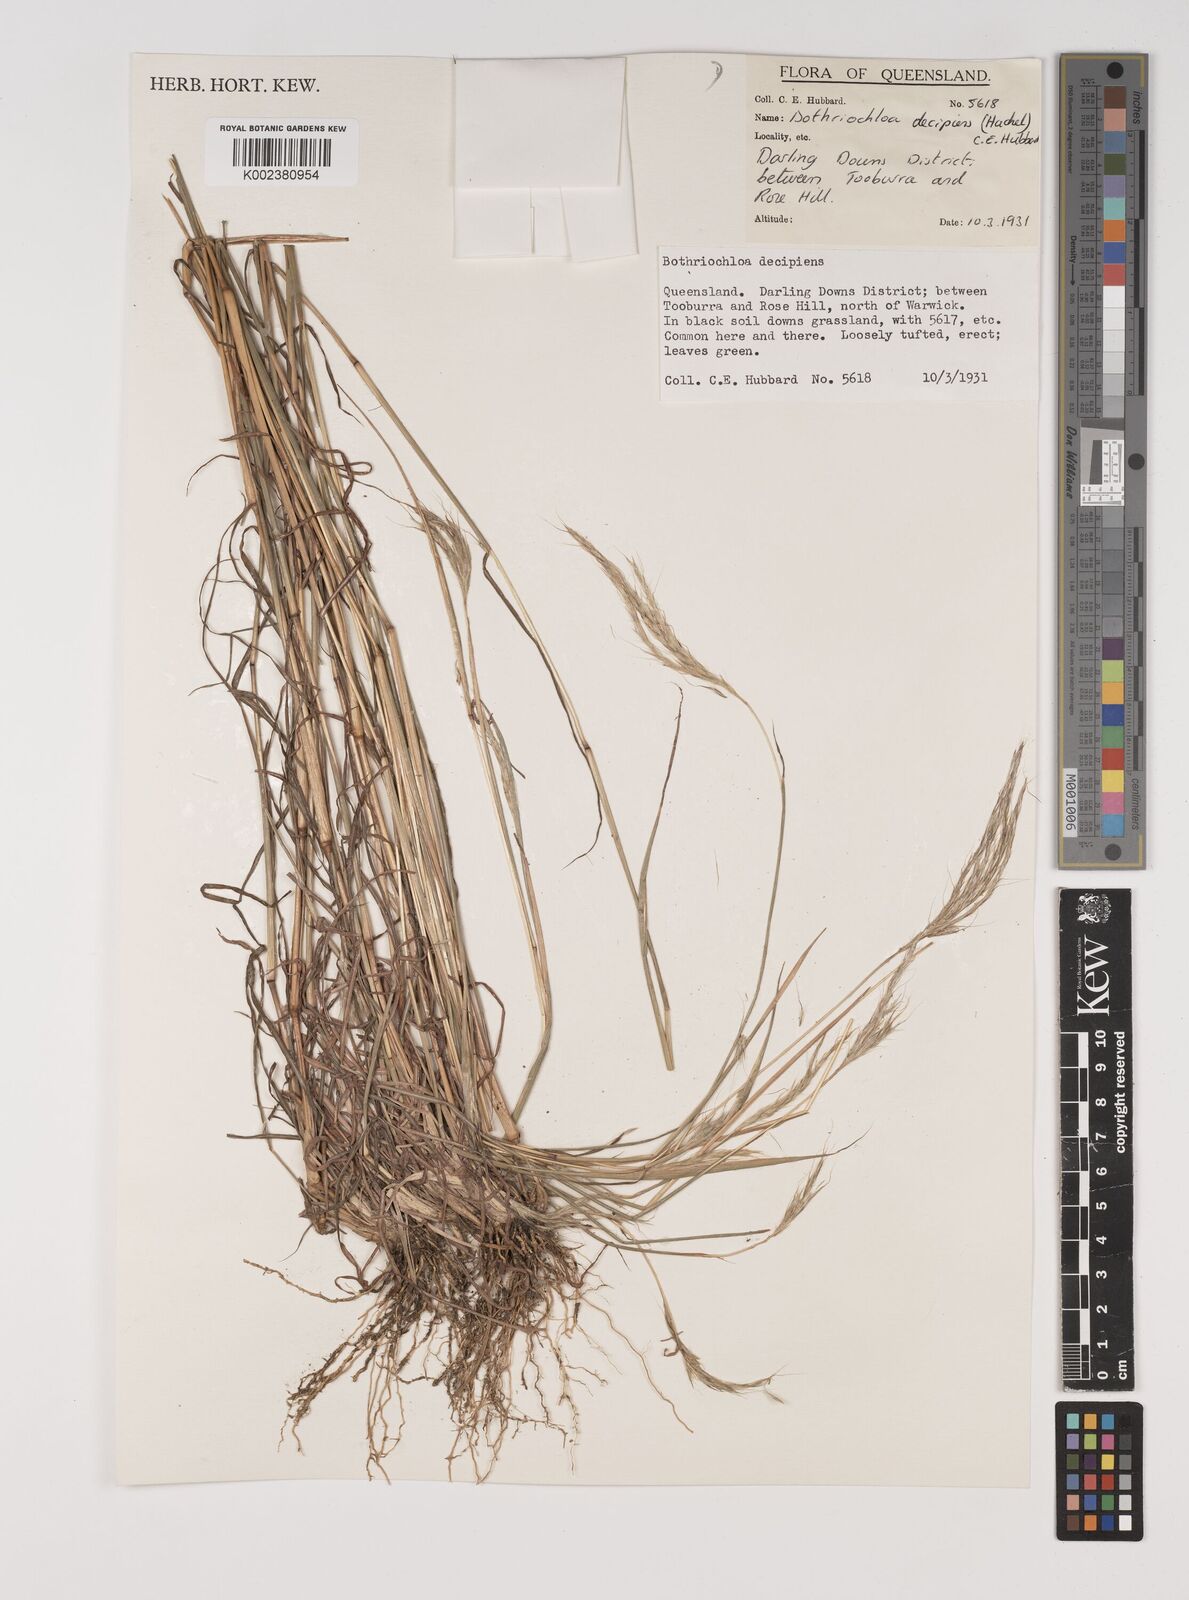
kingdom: Plantae
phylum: Tracheophyta
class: Liliopsida
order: Poales
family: Poaceae
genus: Bothriochloa
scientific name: Bothriochloa decipiens
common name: Pitted-bluegrass
